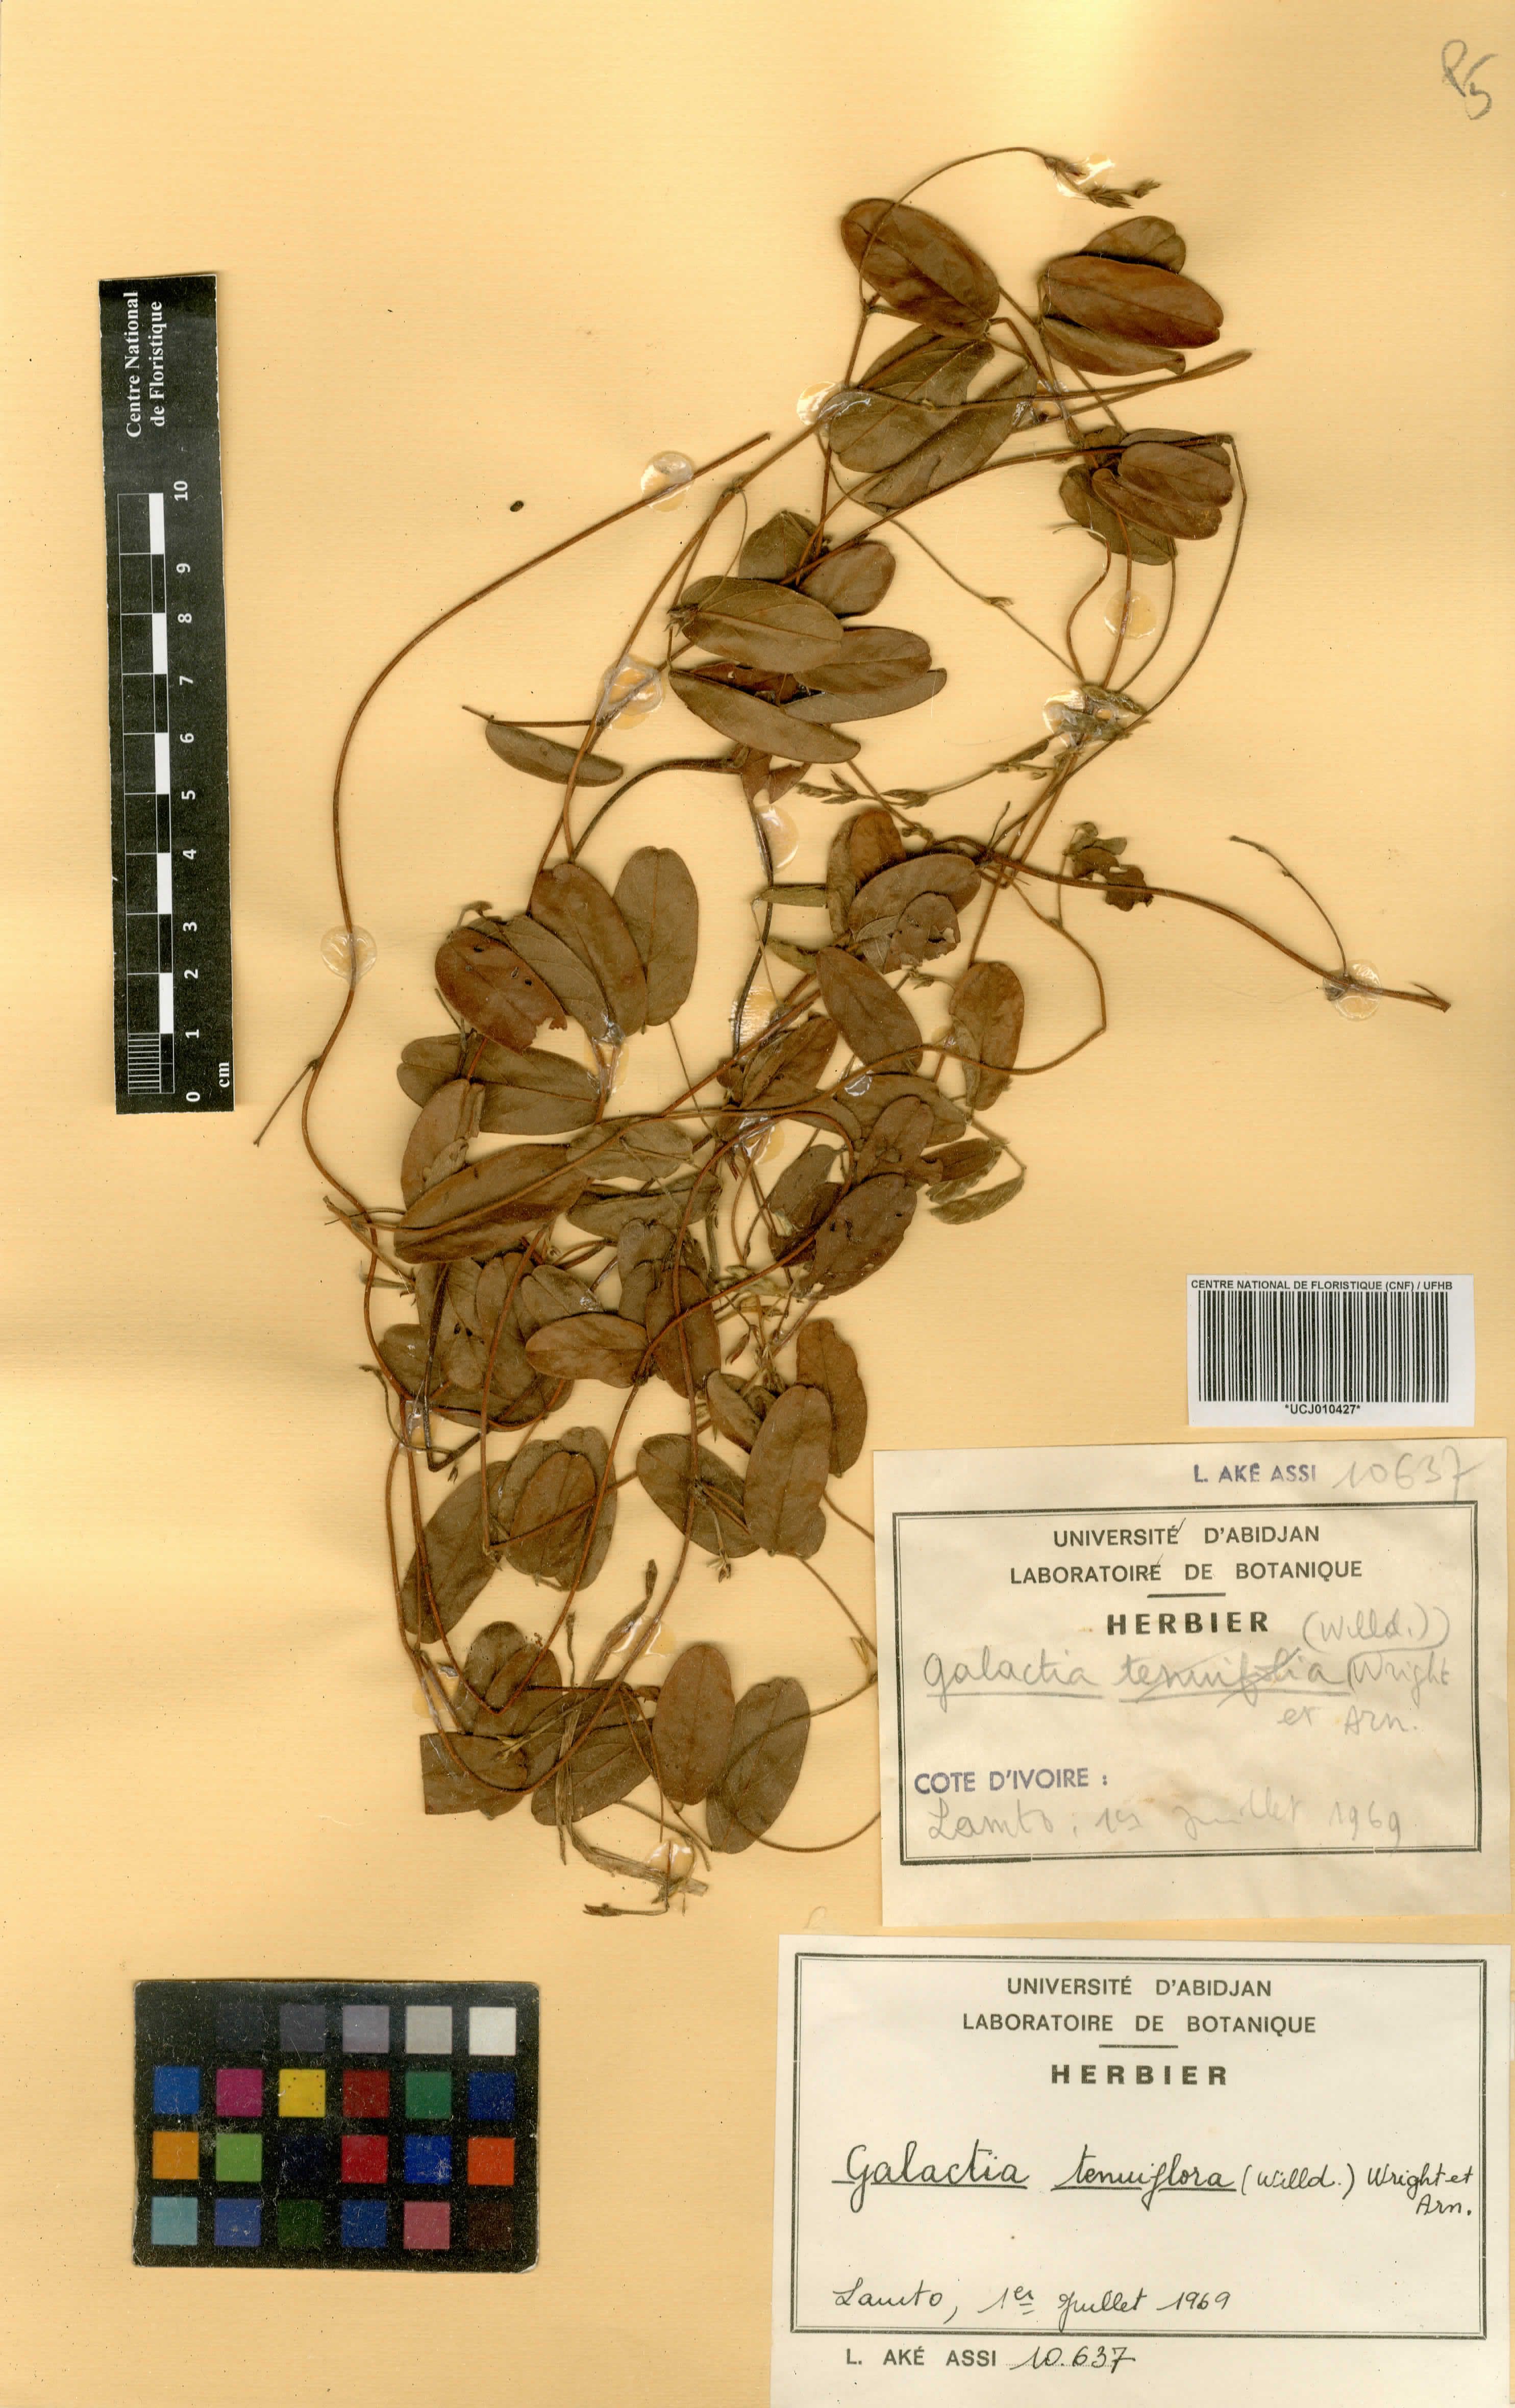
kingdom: Plantae
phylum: Tracheophyta
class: Magnoliopsida
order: Fabales
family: Fabaceae
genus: Galactia
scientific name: Galactia striata
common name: Florida hammock milkpea
